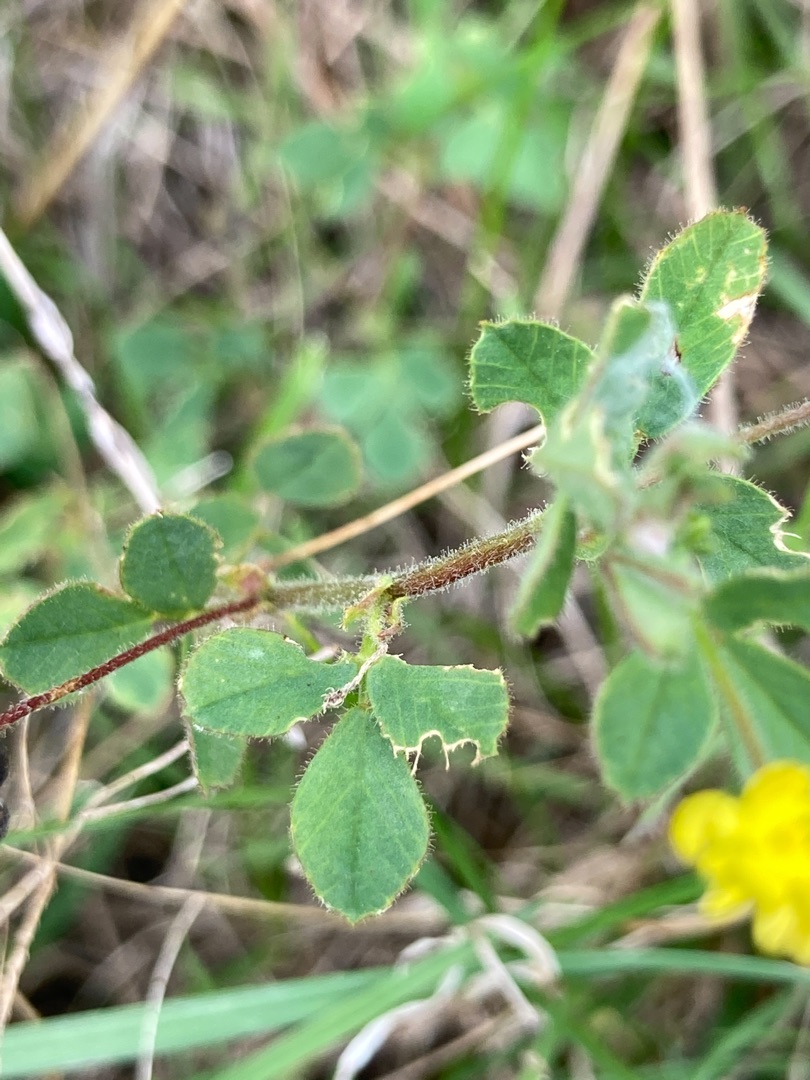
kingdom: Plantae
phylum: Tracheophyta
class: Magnoliopsida
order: Fabales
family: Fabaceae
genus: Medicago
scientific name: Medicago lupulina
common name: Humle-sneglebælg
